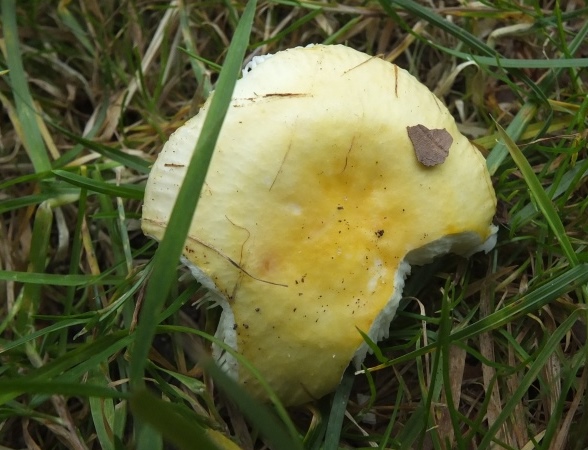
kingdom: Fungi
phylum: Basidiomycota
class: Agaricomycetes
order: Russulales
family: Russulaceae
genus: Russula
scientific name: Russula solaris
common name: sol-skørhat
